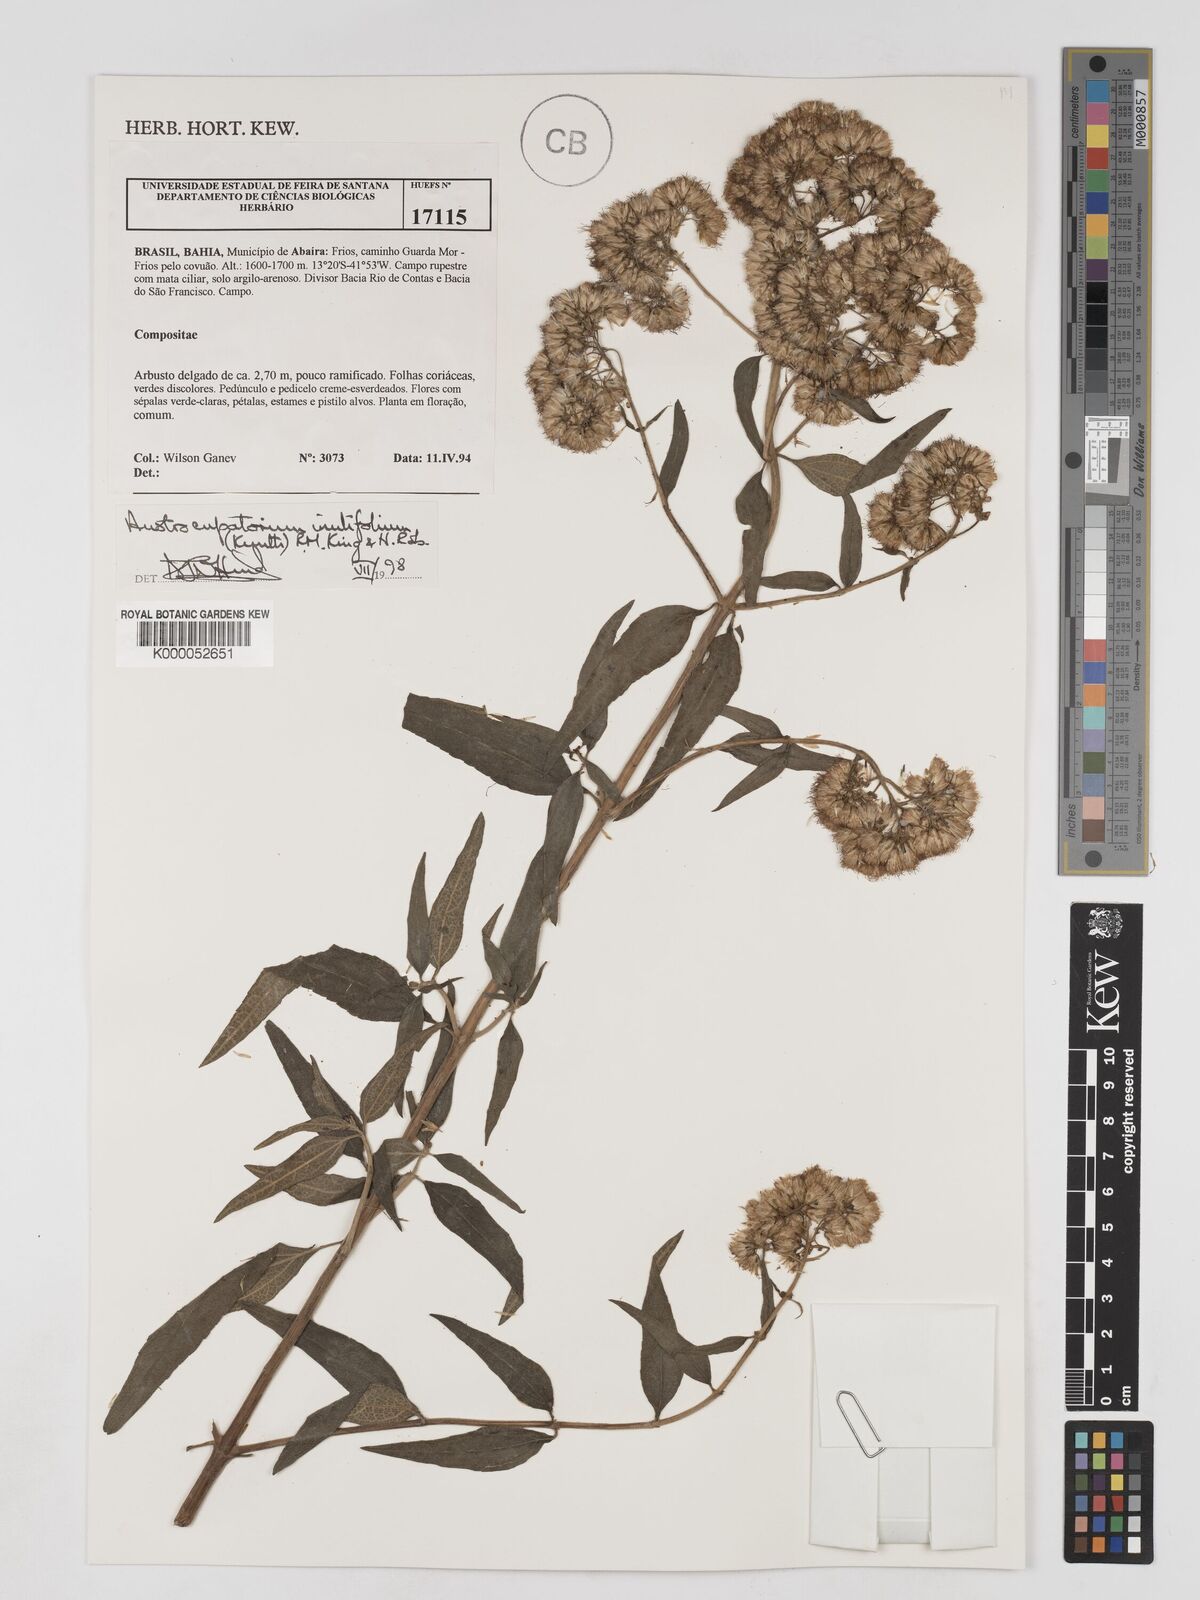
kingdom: Plantae
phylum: Tracheophyta
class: Magnoliopsida
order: Asterales
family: Asteraceae
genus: Austroeupatorium
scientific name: Austroeupatorium inulifolium
